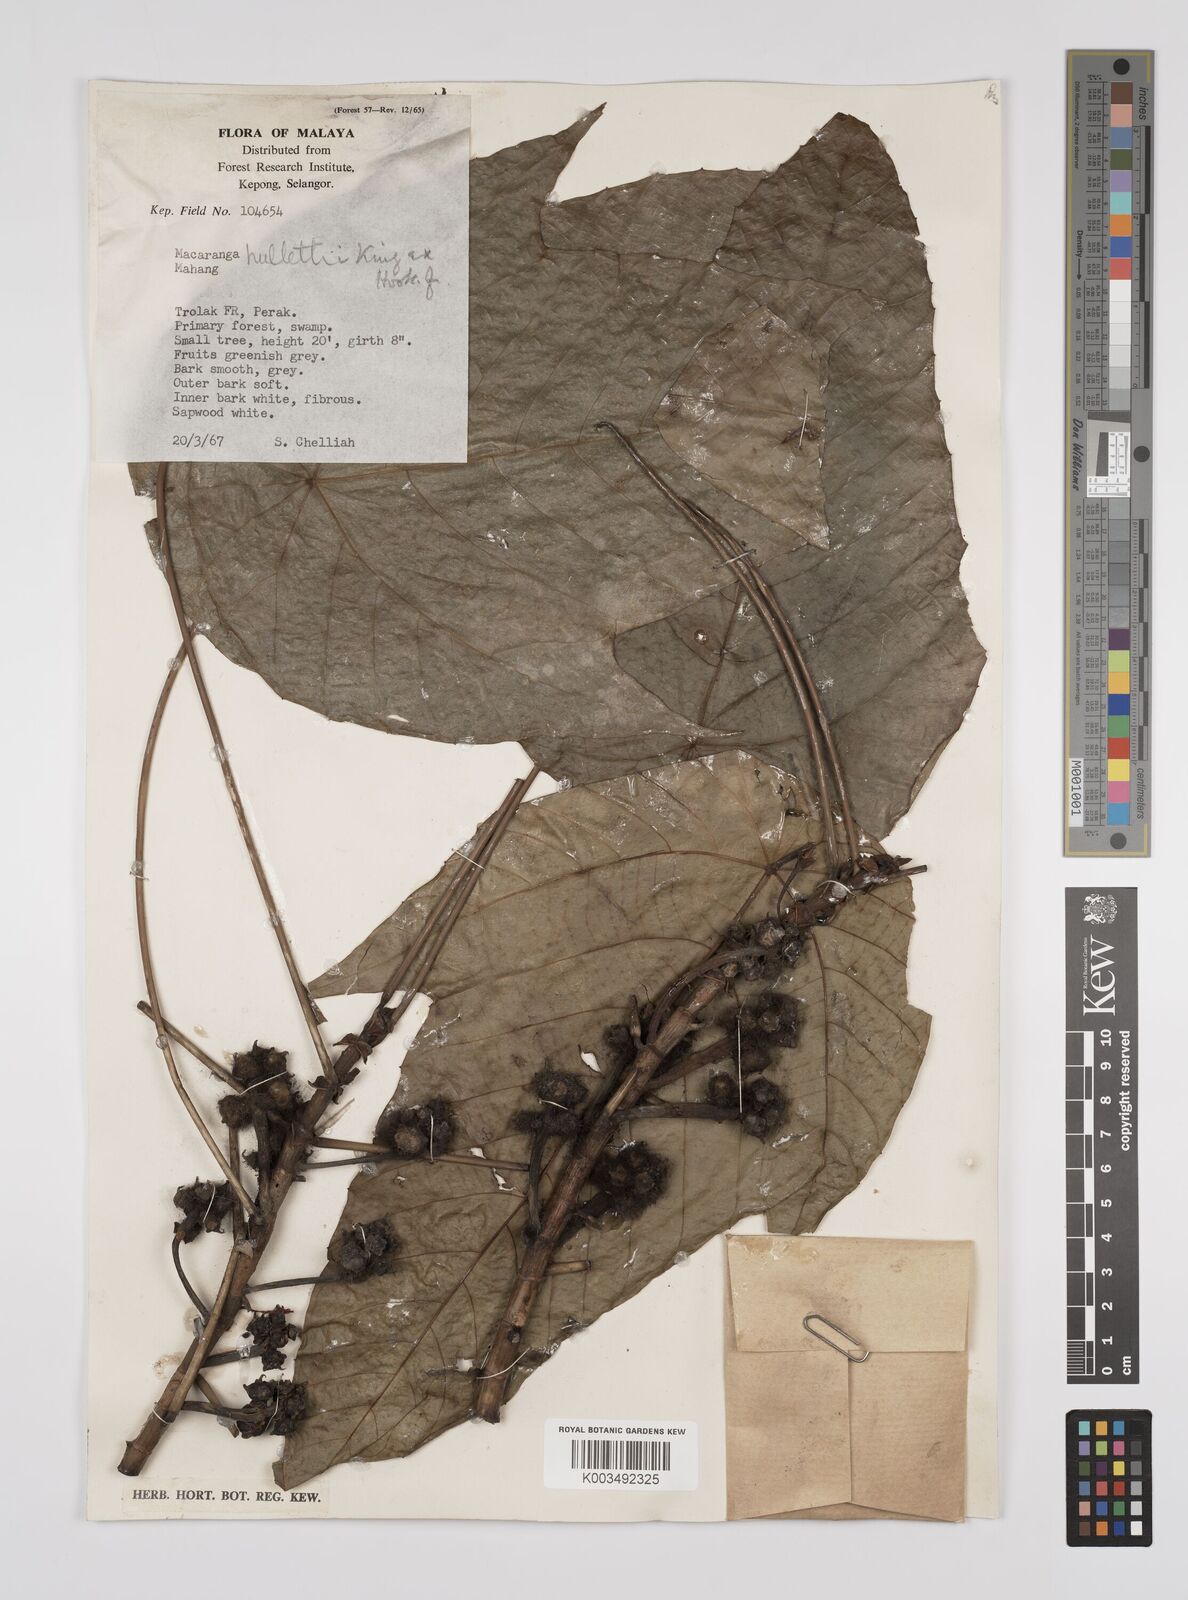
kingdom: Plantae
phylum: Tracheophyta
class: Magnoliopsida
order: Malpighiales
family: Euphorbiaceae
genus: Macaranga
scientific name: Macaranga hullettii
